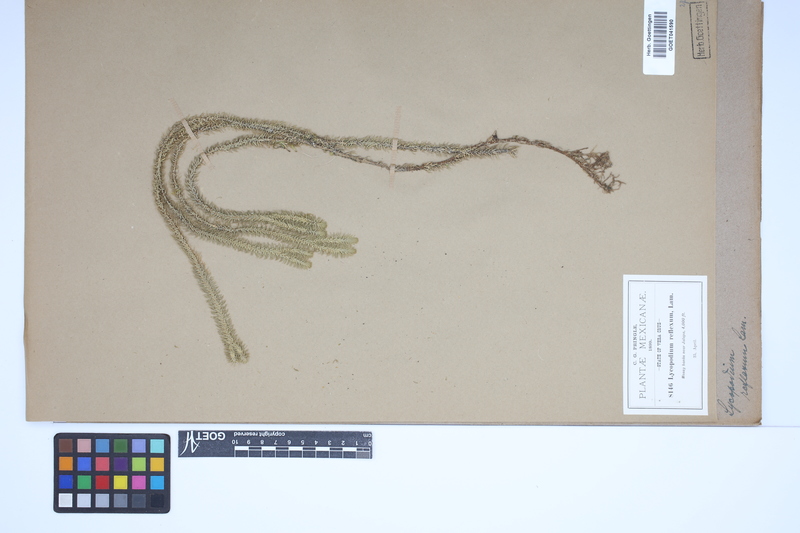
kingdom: Plantae
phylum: Tracheophyta
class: Lycopodiopsida
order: Lycopodiales
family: Lycopodiaceae
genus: Huperzia
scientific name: Huperzia lucidula
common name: Shining clubmoss
